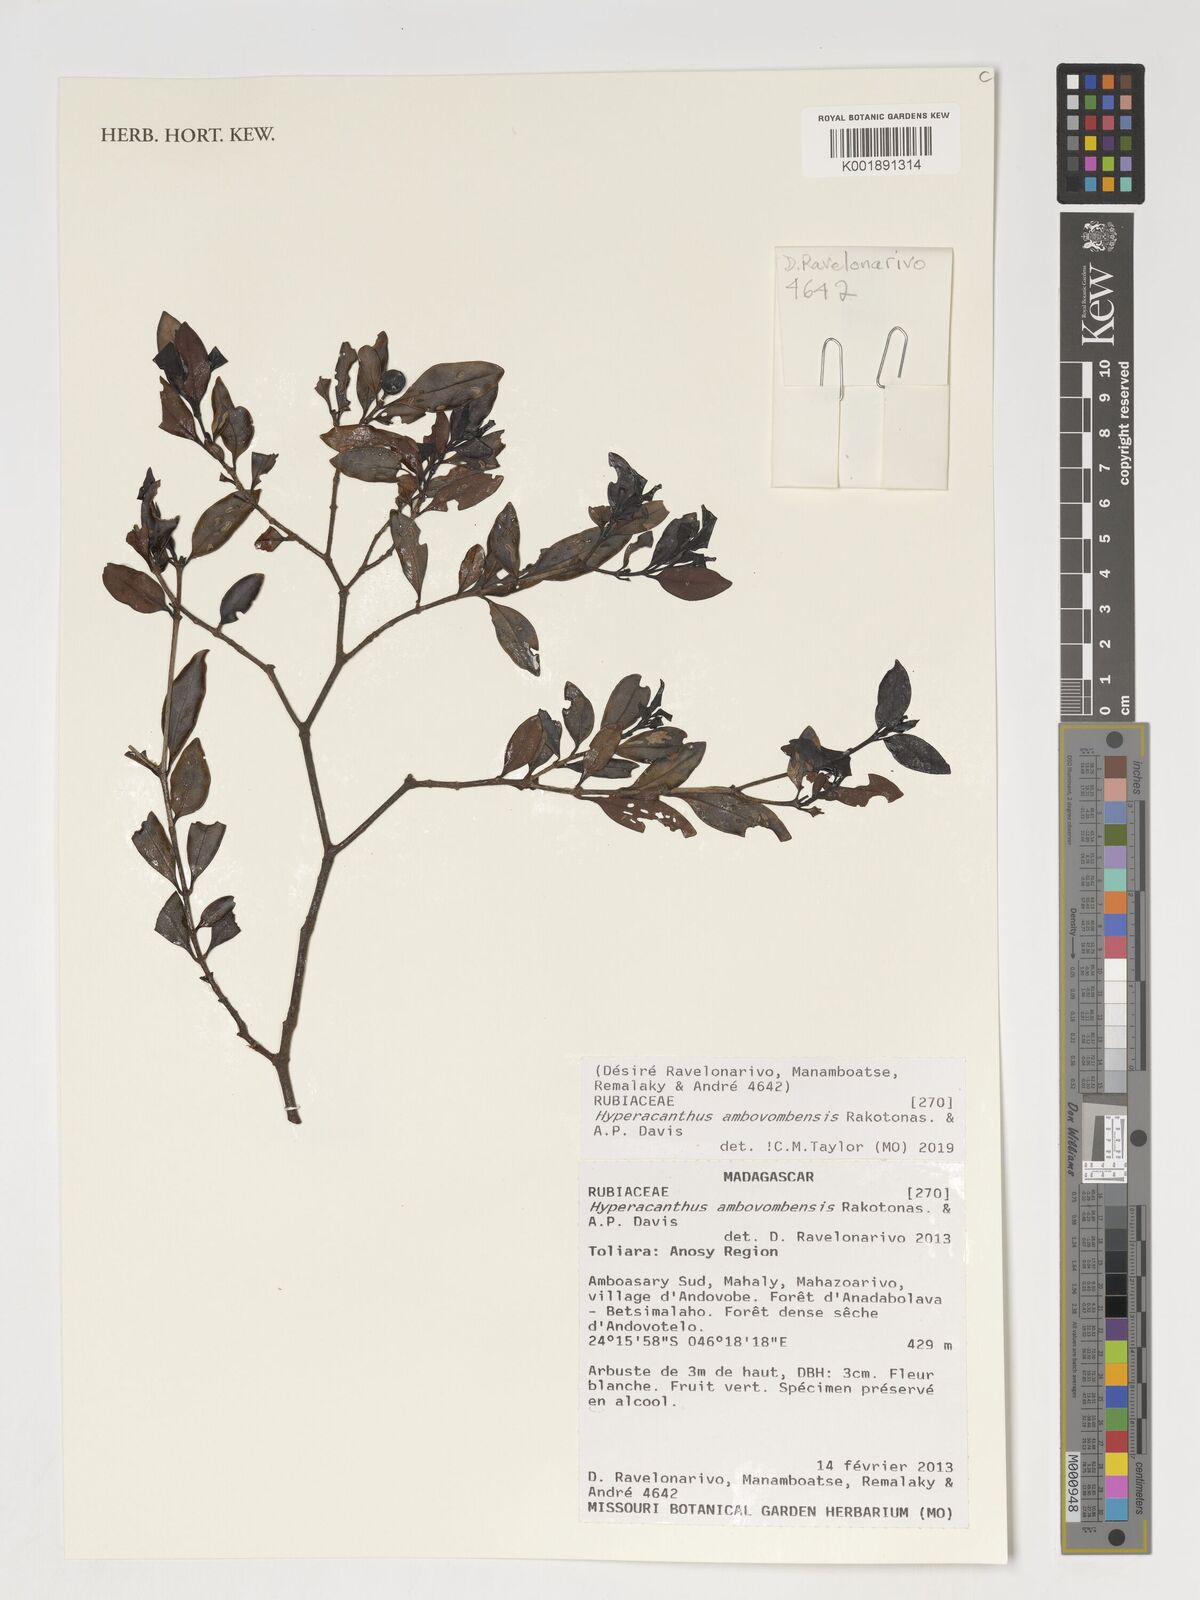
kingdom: Plantae
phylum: Tracheophyta
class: Magnoliopsida
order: Gentianales
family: Rubiaceae
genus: Hyperacanthus
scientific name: Hyperacanthus ambovombensis
